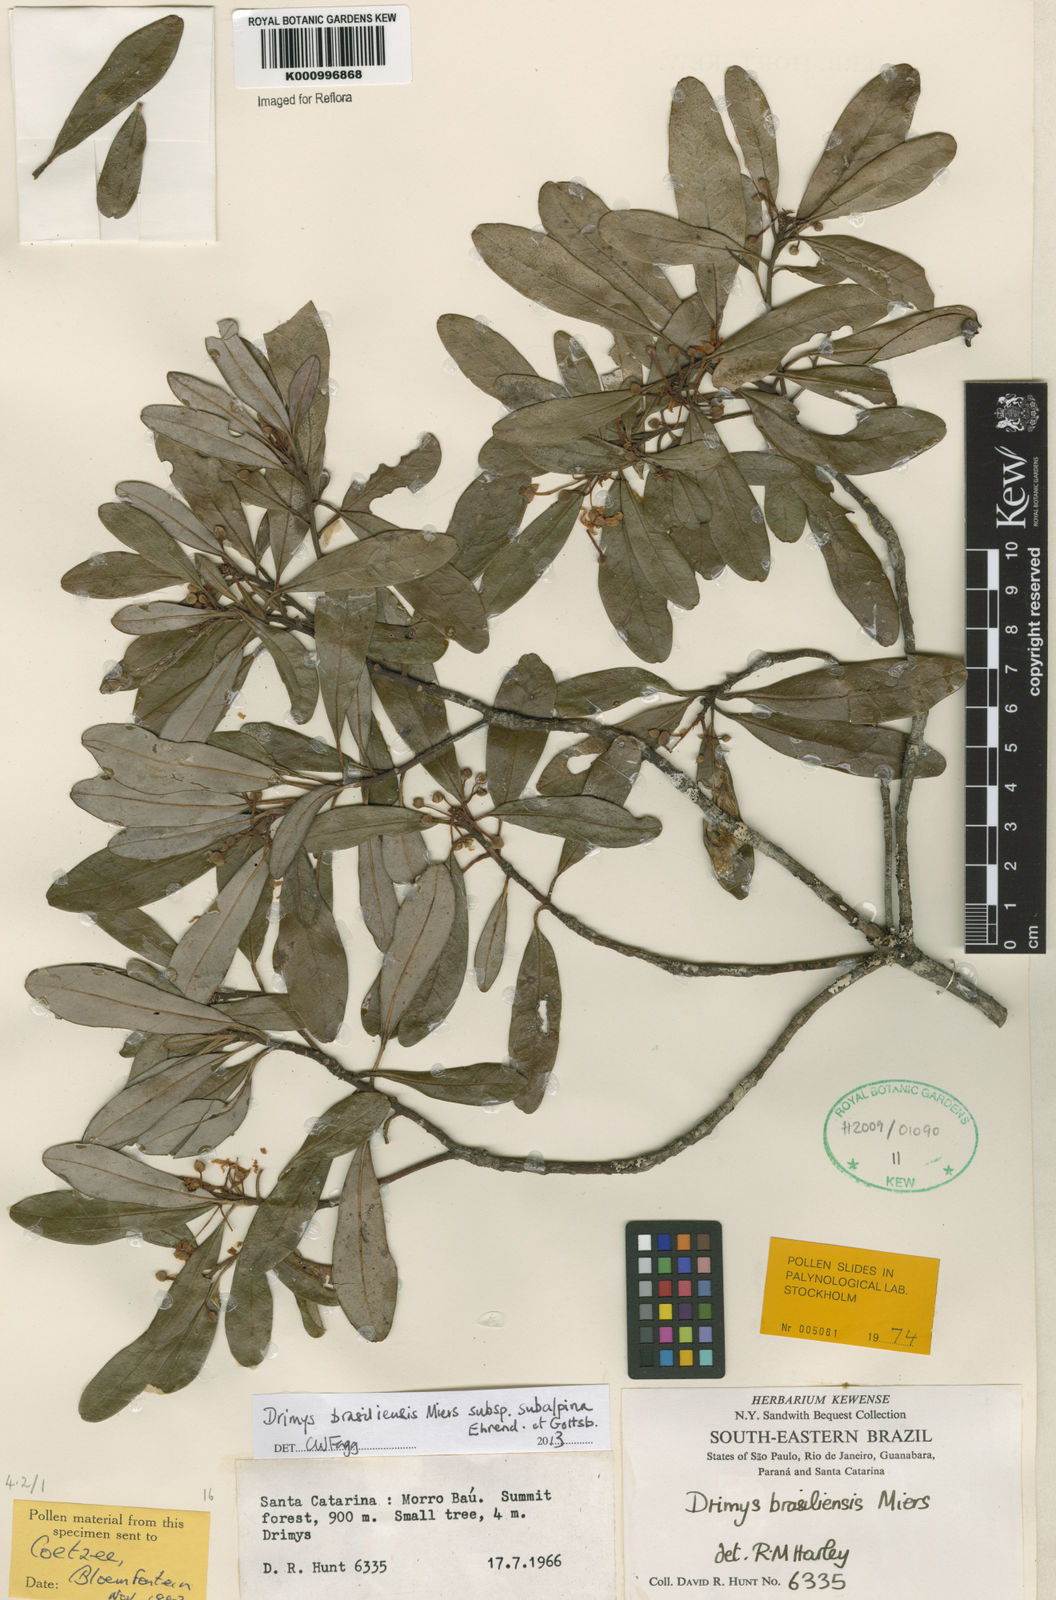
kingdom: Plantae
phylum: Tracheophyta
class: Magnoliopsida
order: Canellales
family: Winteraceae
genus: Drimys
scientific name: Drimys brasiliensis
